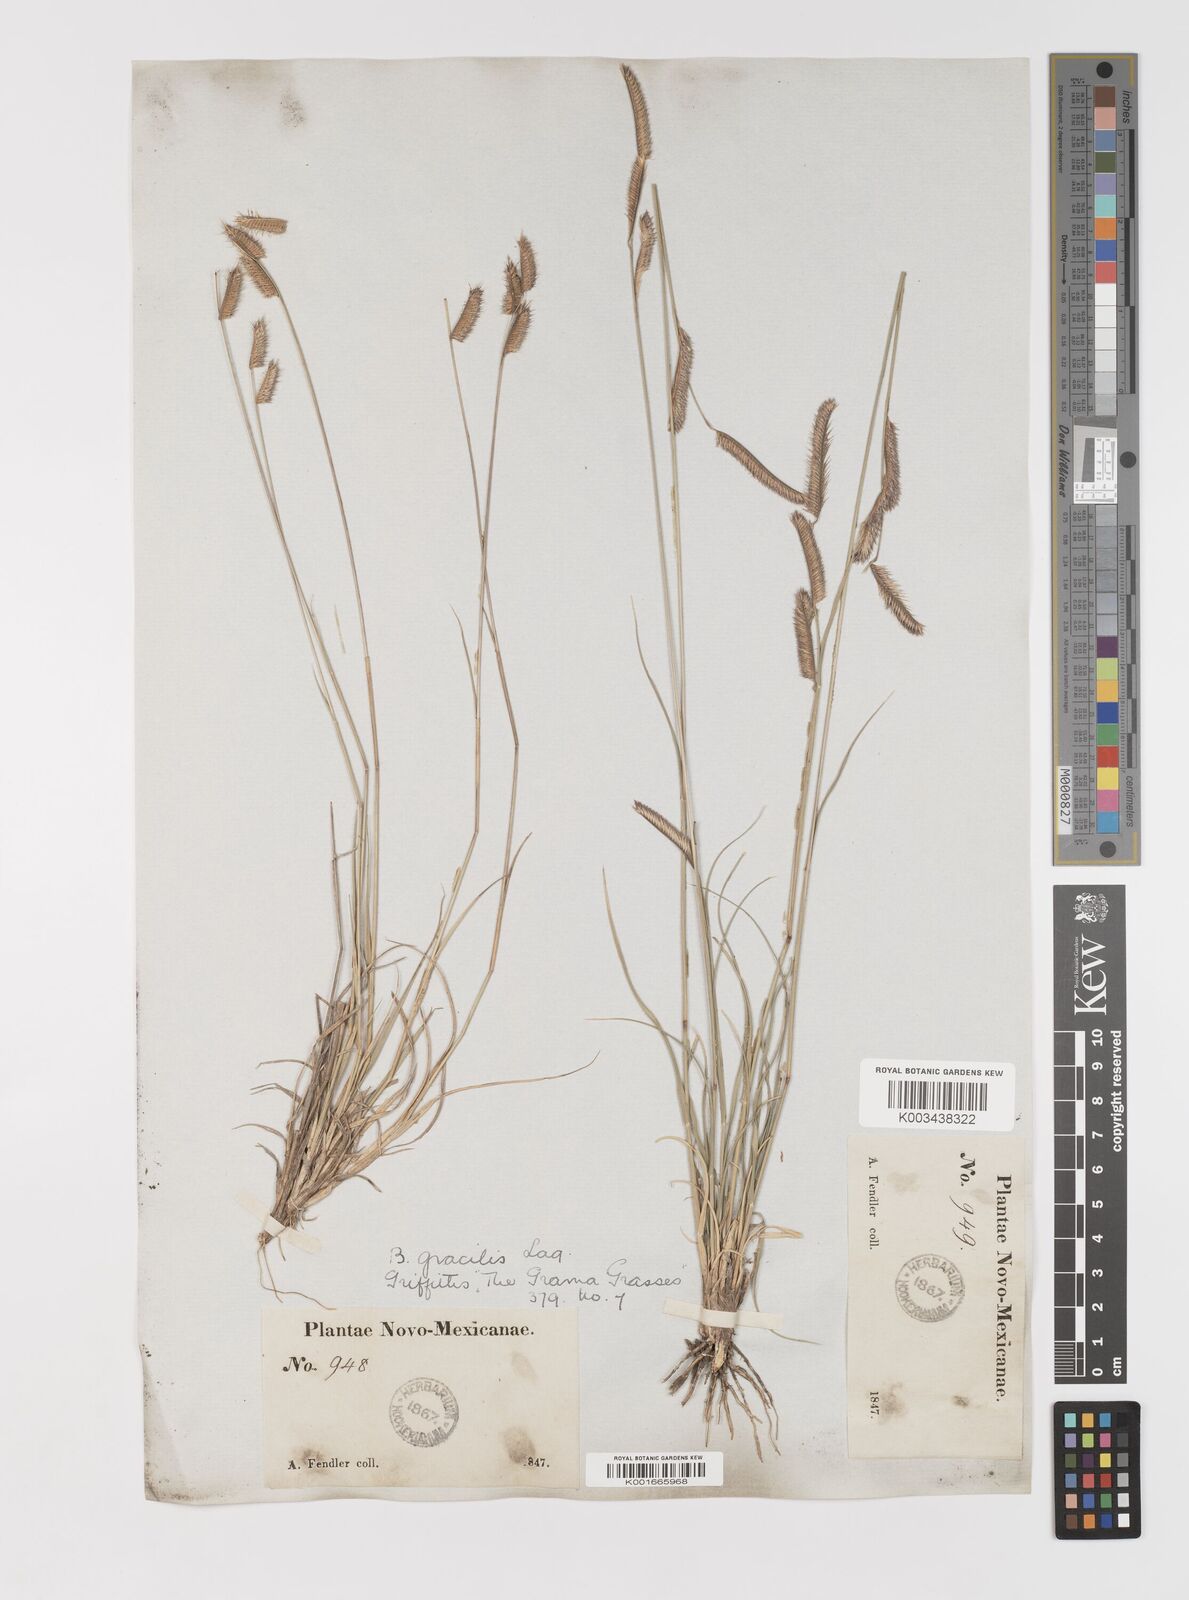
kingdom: Plantae
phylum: Tracheophyta
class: Liliopsida
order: Poales
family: Poaceae
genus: Bouteloua
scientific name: Bouteloua
